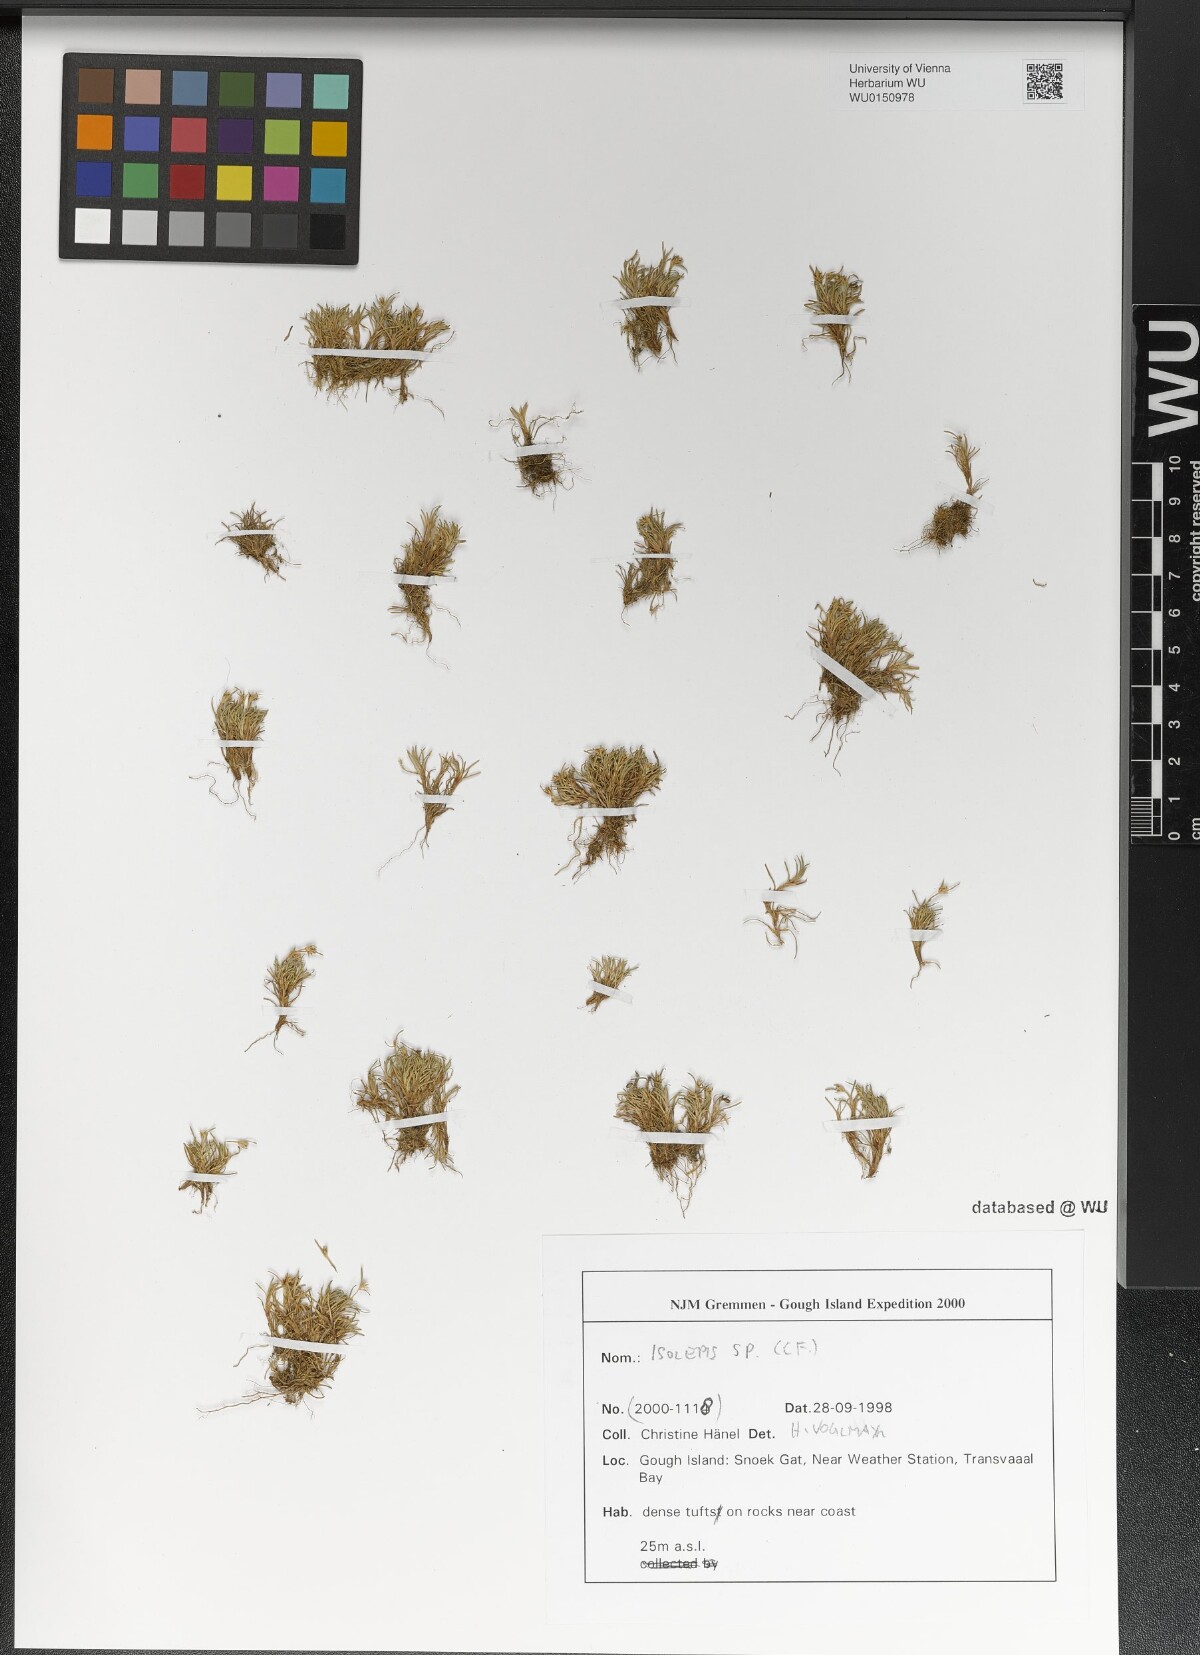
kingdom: Plantae
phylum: Tracheophyta
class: Liliopsida
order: Poales
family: Cyperaceae
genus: Isolepis
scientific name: Isolepis
